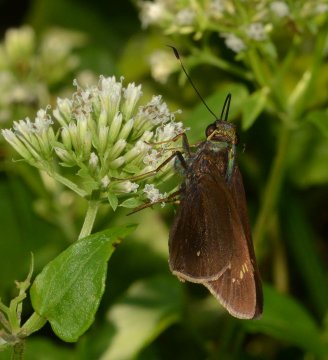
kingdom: Animalia
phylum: Arthropoda
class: Insecta
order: Lepidoptera
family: Hesperiidae
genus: Rhinthon
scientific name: Rhinthon cubana
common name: Osca Skipper
